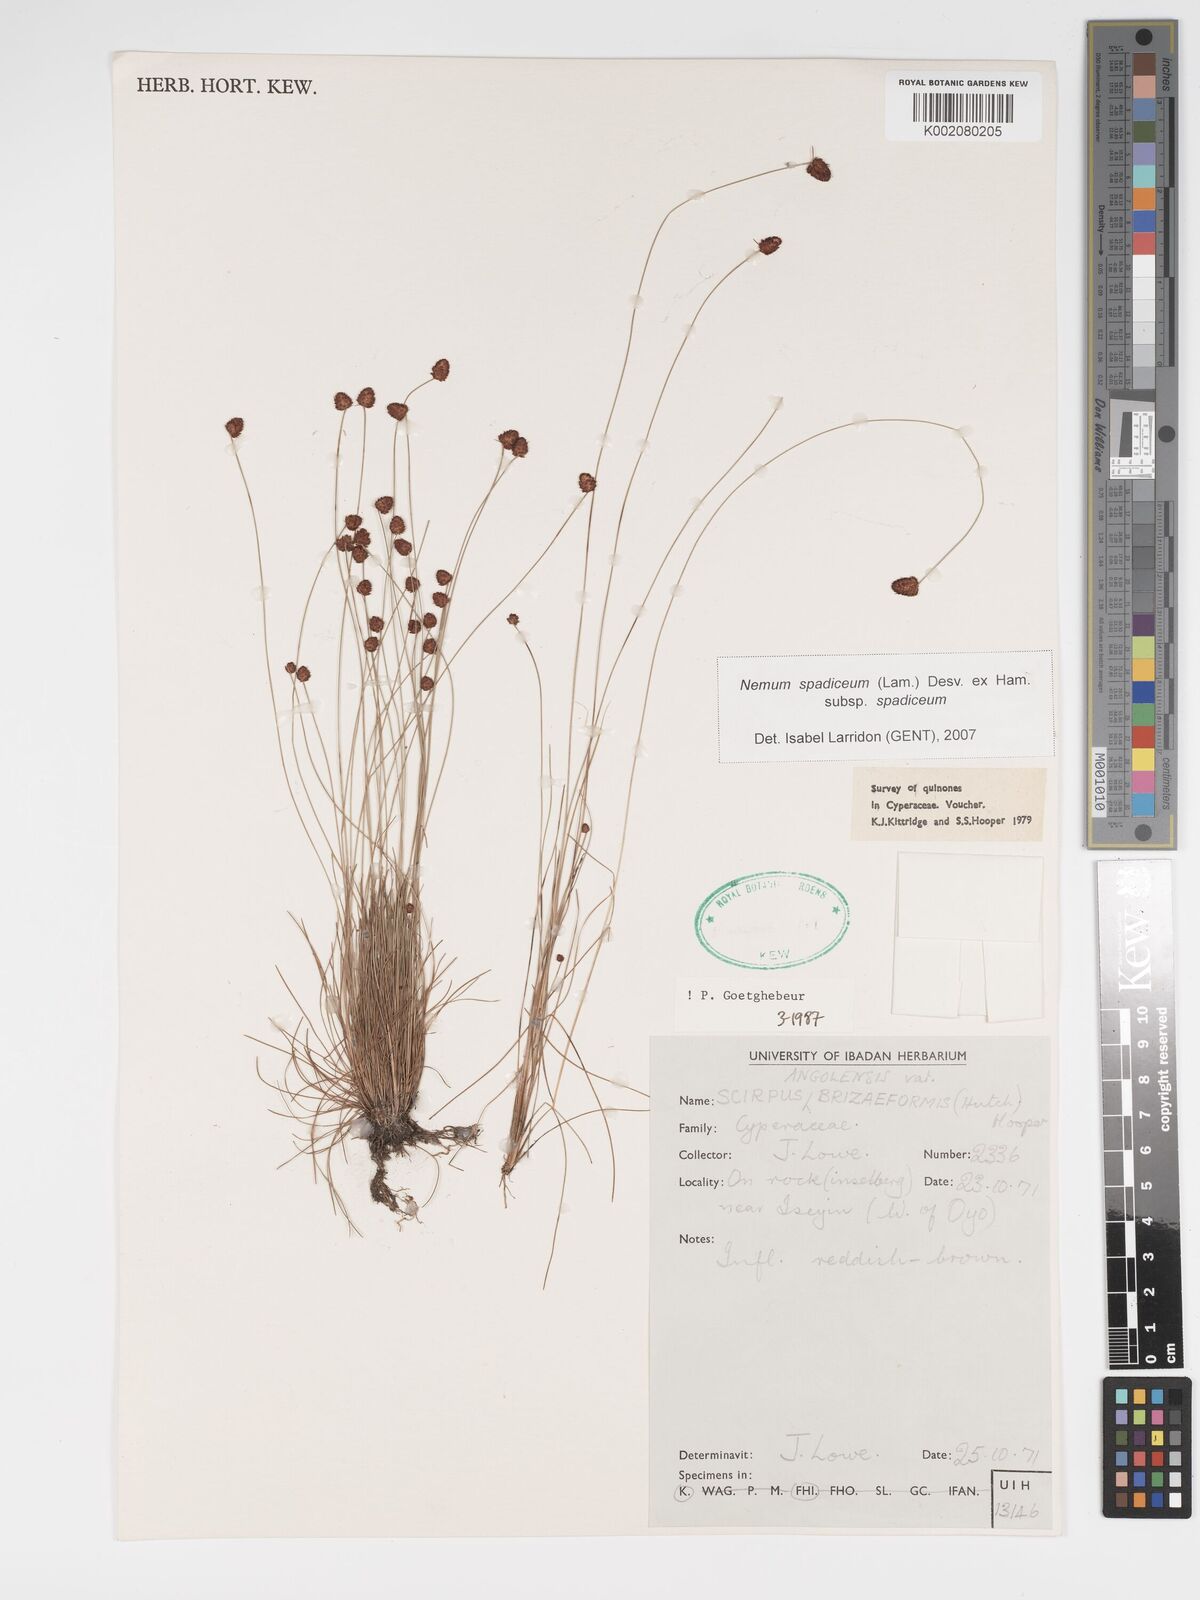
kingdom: Plantae
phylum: Tracheophyta
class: Liliopsida
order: Poales
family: Cyperaceae
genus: Bulbostylis
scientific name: Bulbostylis briziformis
